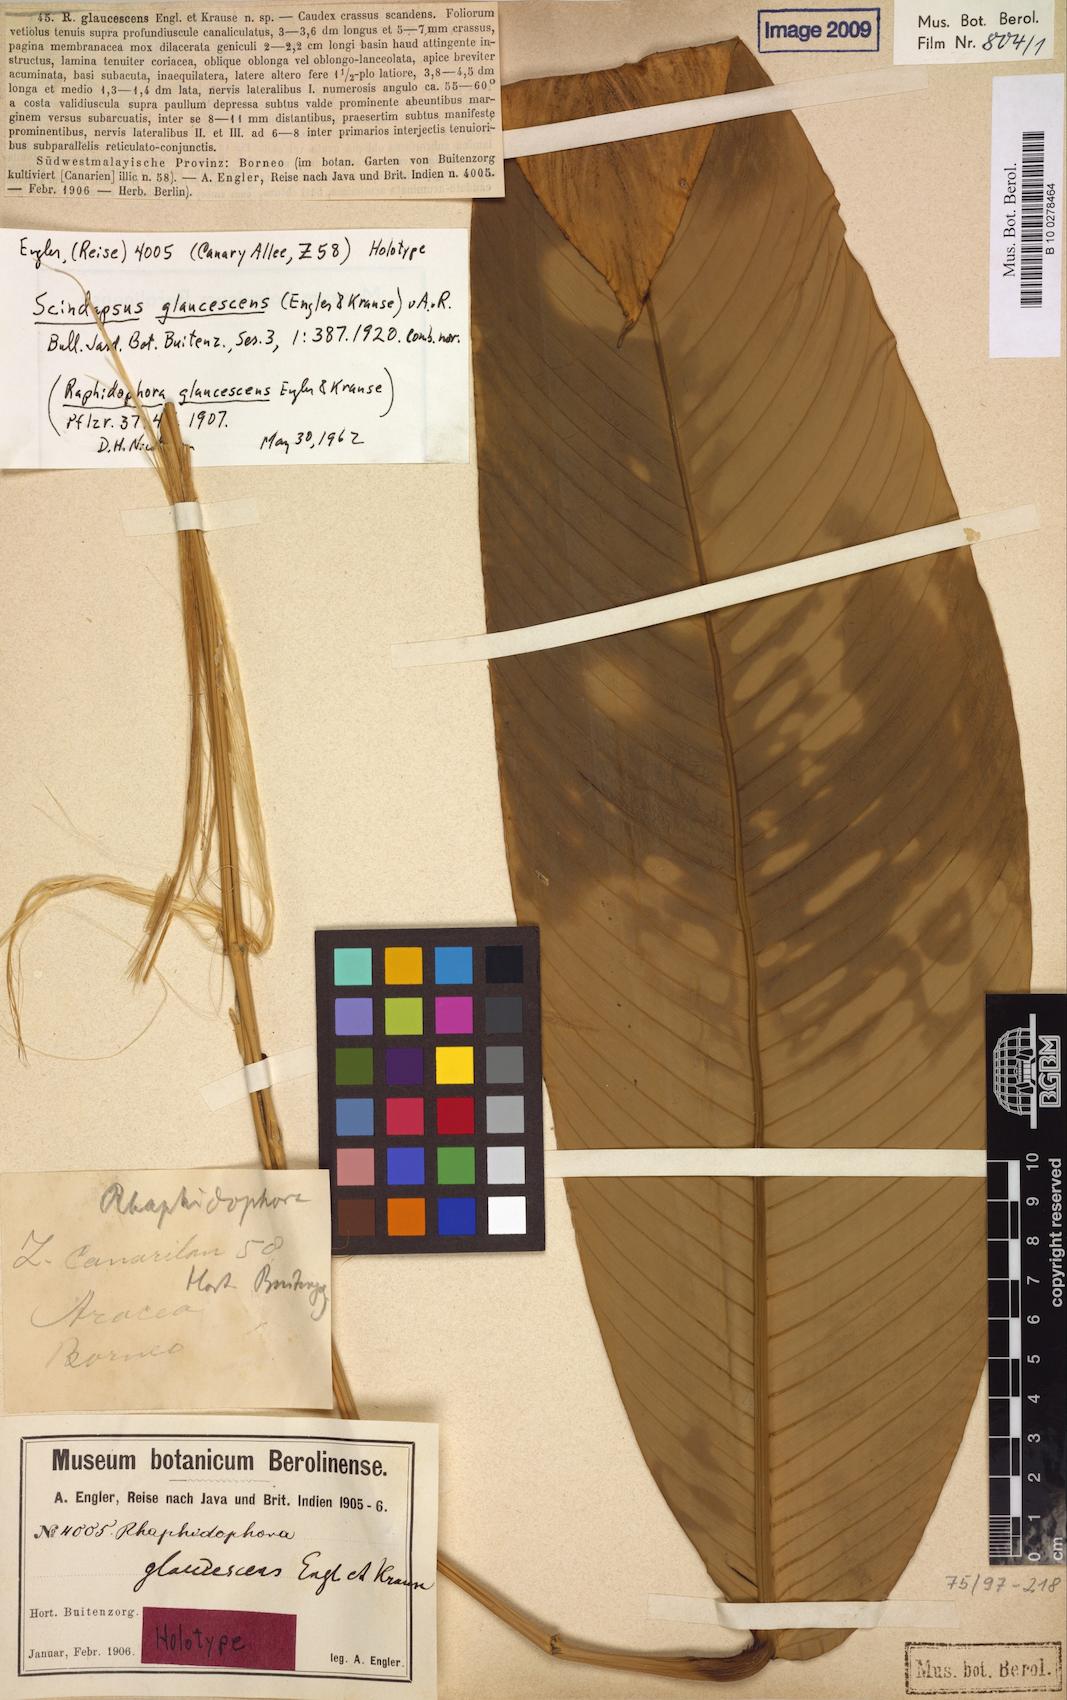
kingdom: Plantae
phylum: Tracheophyta
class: Liliopsida
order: Alismatales
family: Araceae
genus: Scindapsus
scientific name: Scindapsus glaucescens
